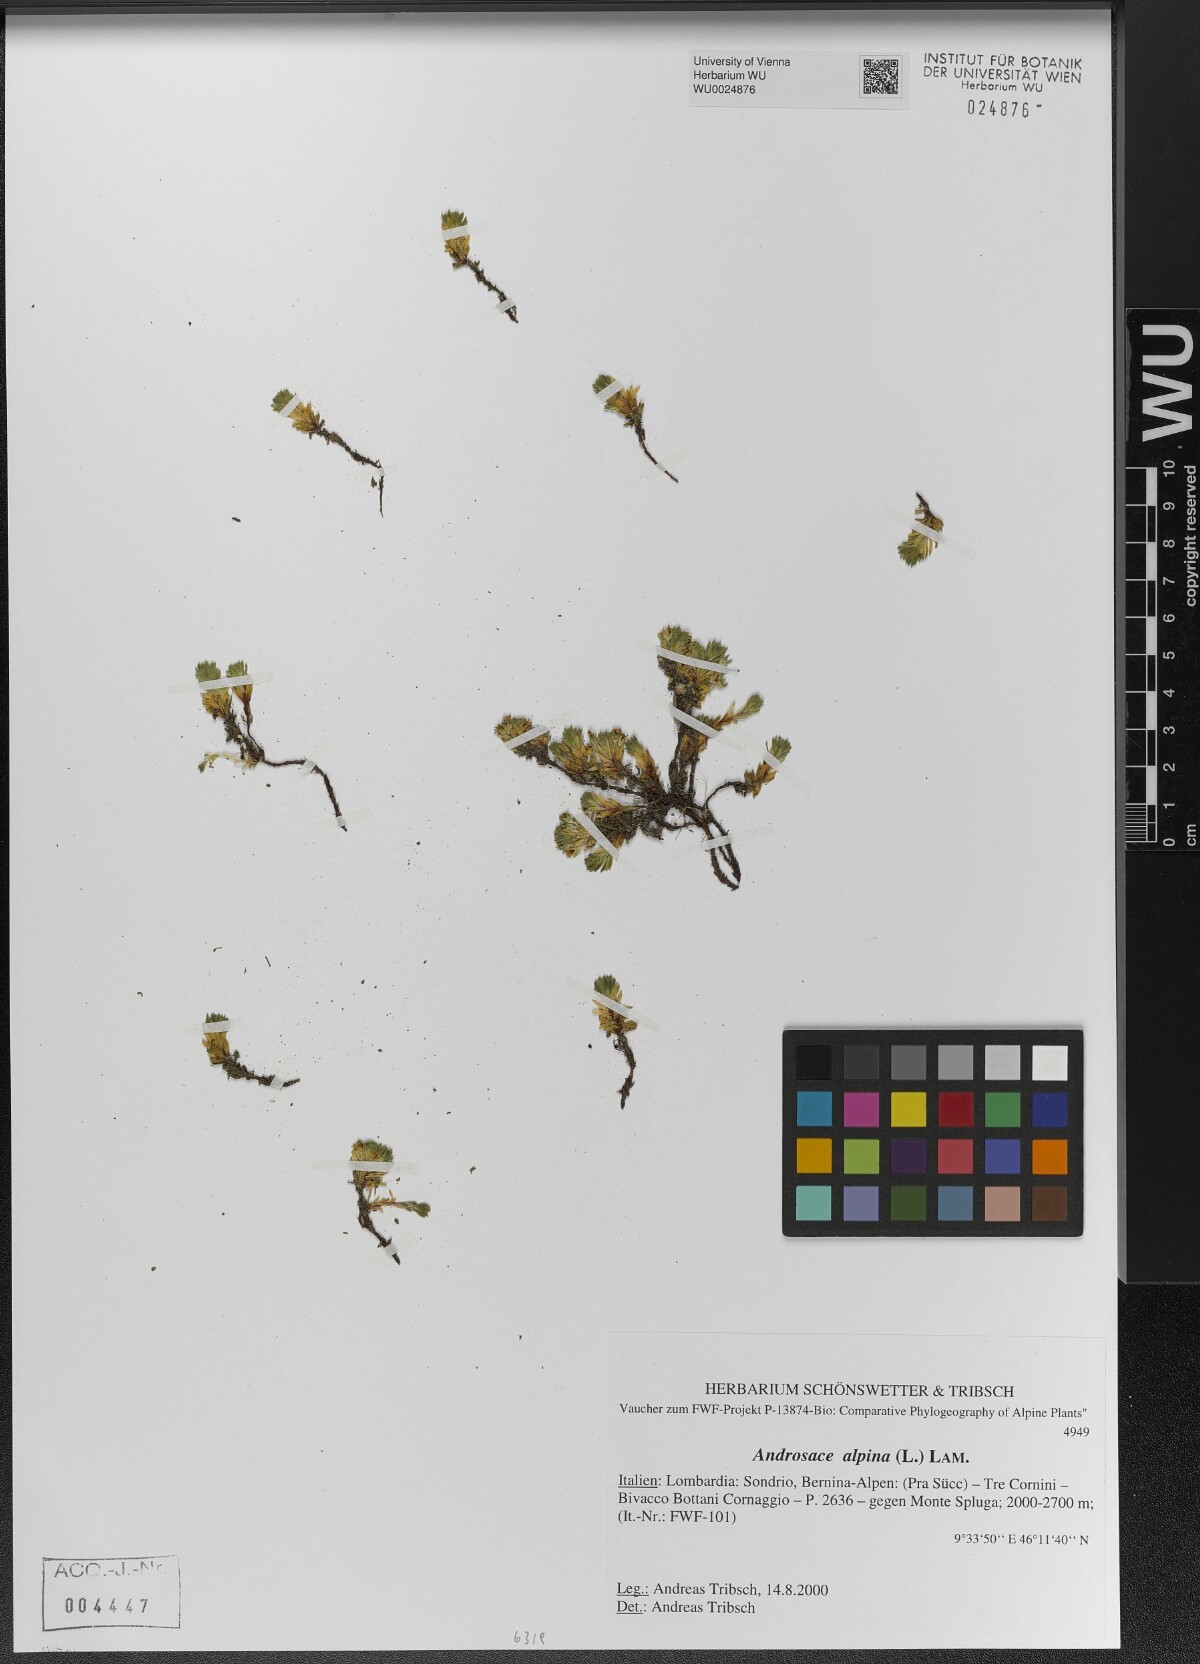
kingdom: Plantae
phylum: Tracheophyta
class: Magnoliopsida
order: Ericales
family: Primulaceae
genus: Androsace
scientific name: Androsace alpina
